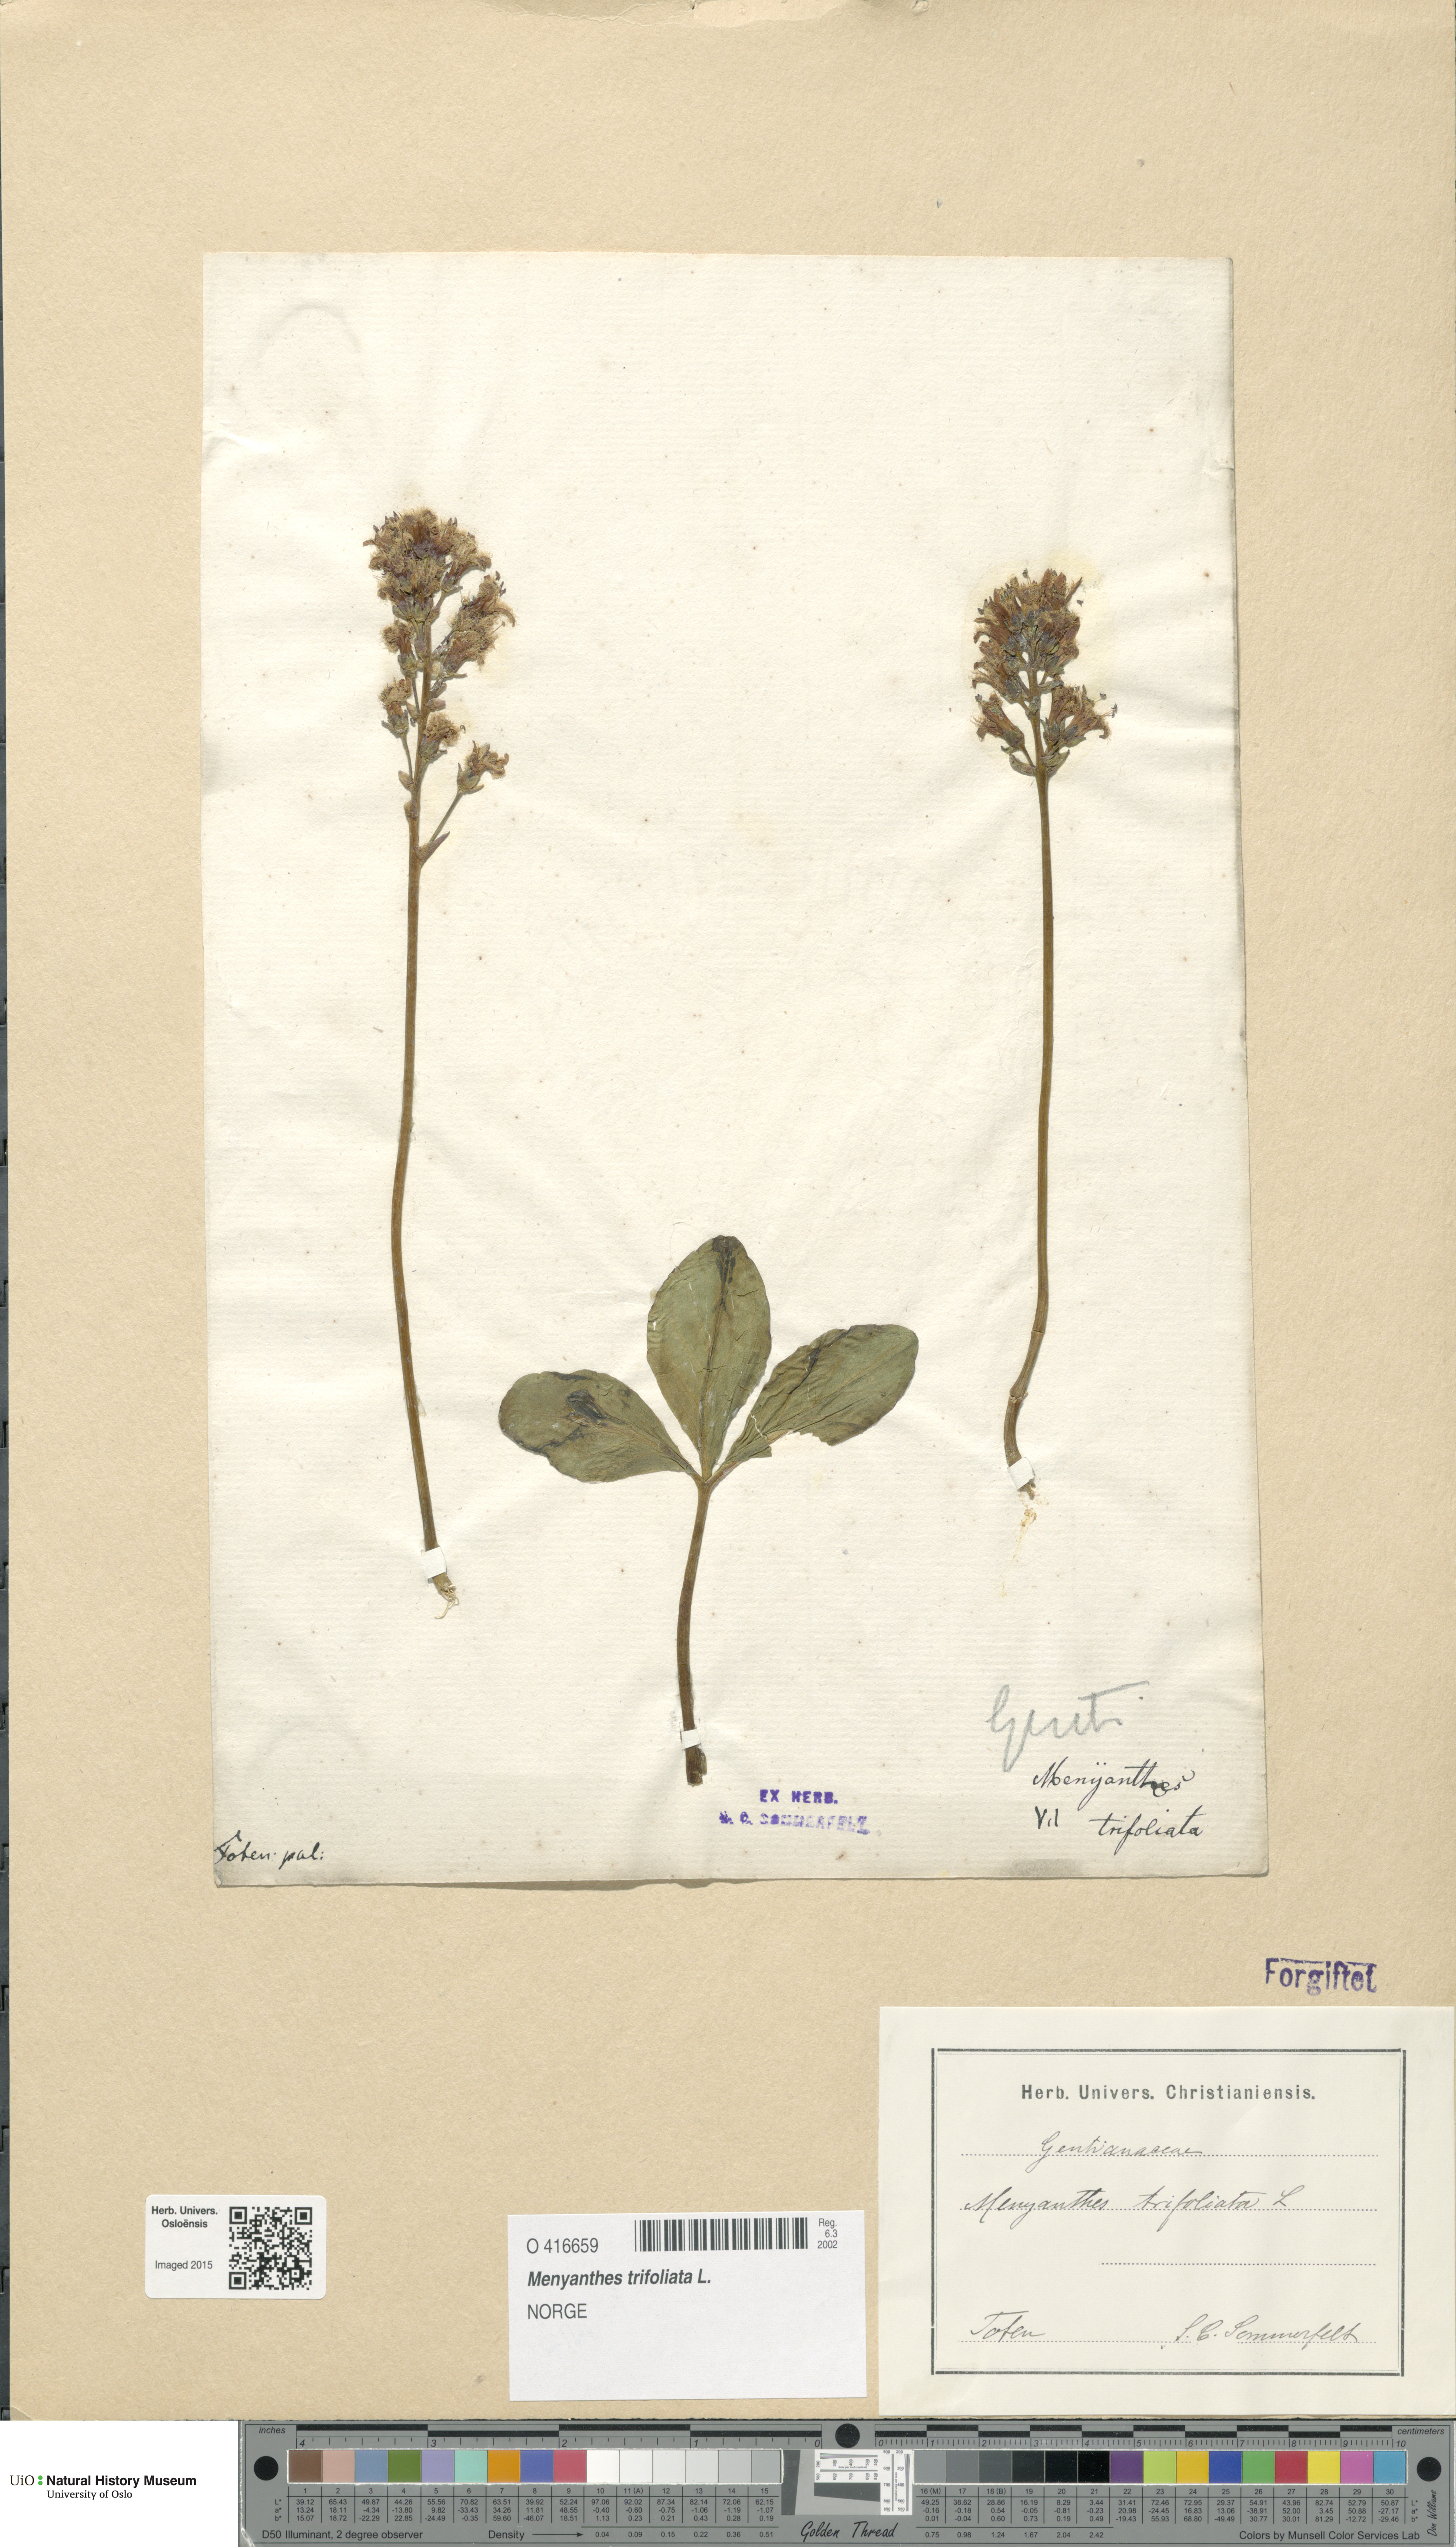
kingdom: Plantae
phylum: Tracheophyta
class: Magnoliopsida
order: Asterales
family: Menyanthaceae
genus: Menyanthes
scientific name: Menyanthes trifoliata
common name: Bogbean
